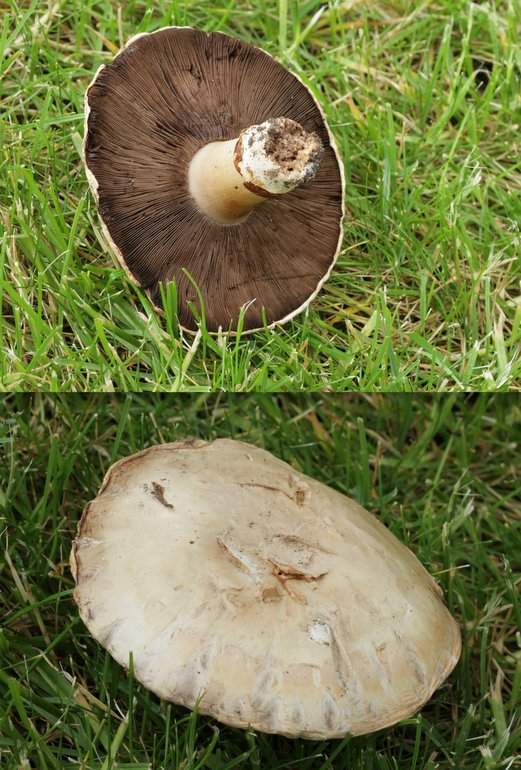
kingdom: Fungi
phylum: Basidiomycota
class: Agaricomycetes
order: Agaricales
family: Agaricaceae
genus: Agaricus
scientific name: Agaricus bitorquis
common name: vej-champignon
